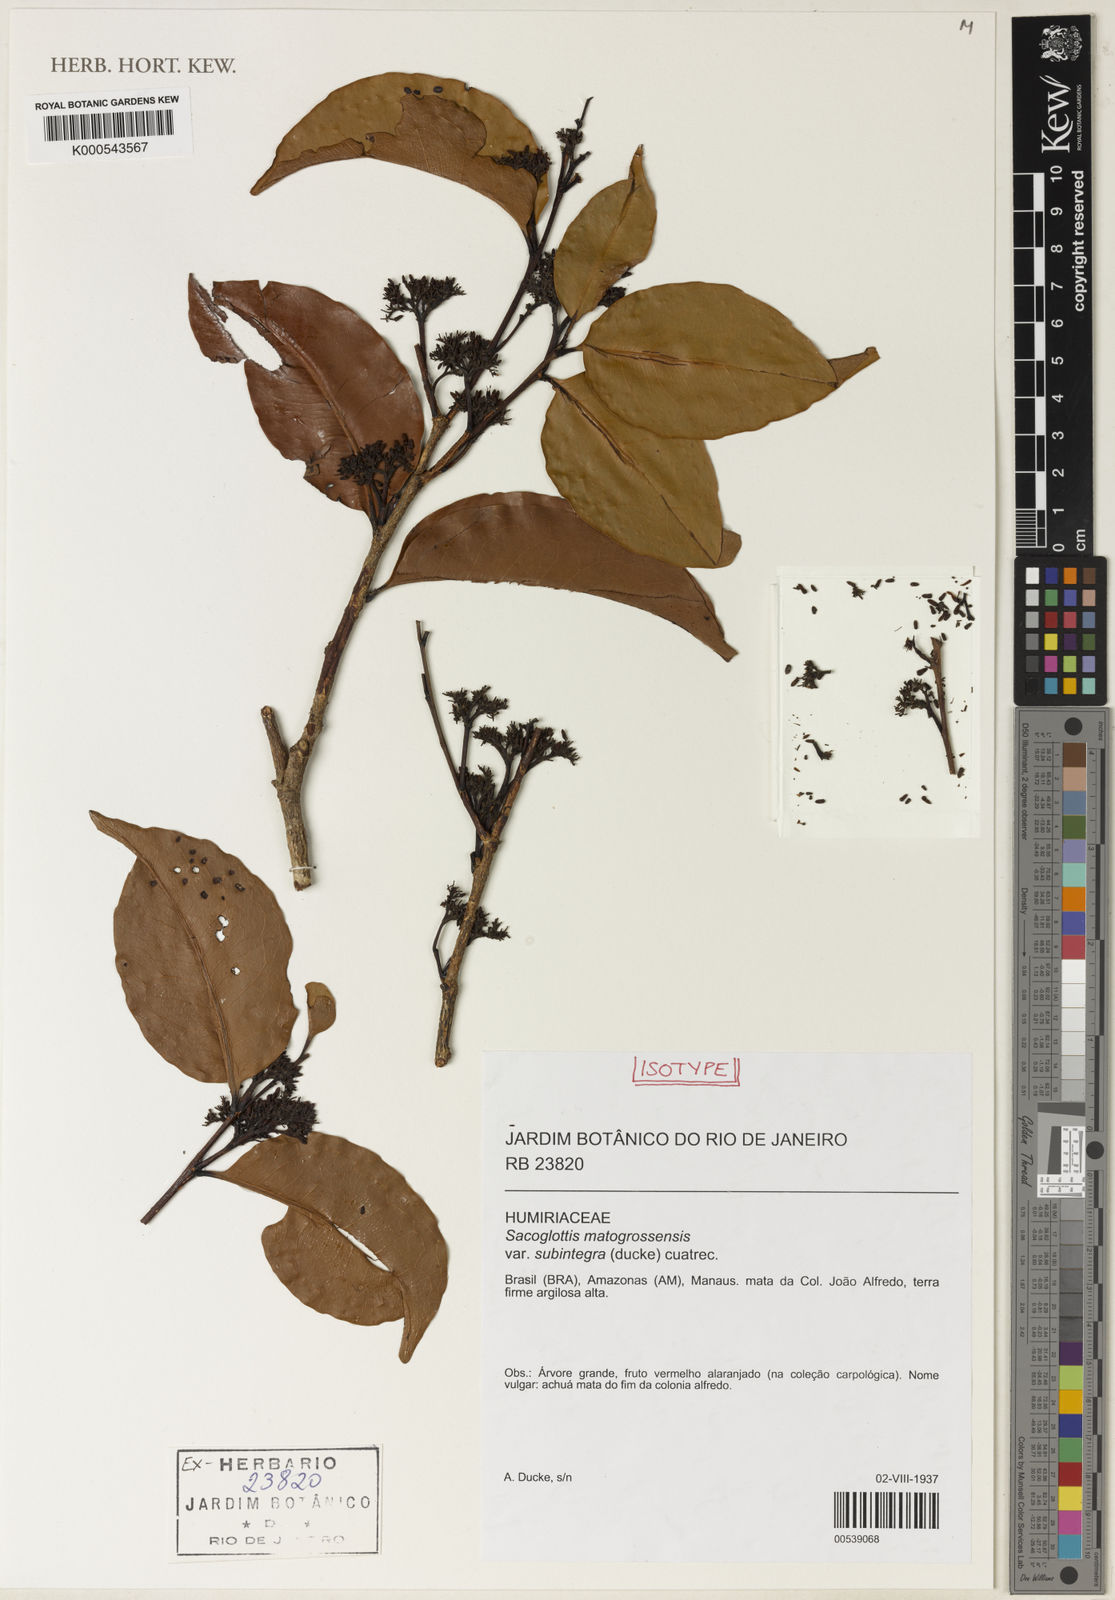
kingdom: Plantae
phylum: Tracheophyta
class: Magnoliopsida
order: Malpighiales
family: Humiriaceae
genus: Sacoglottis
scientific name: Sacoglottis mattogrossensis
